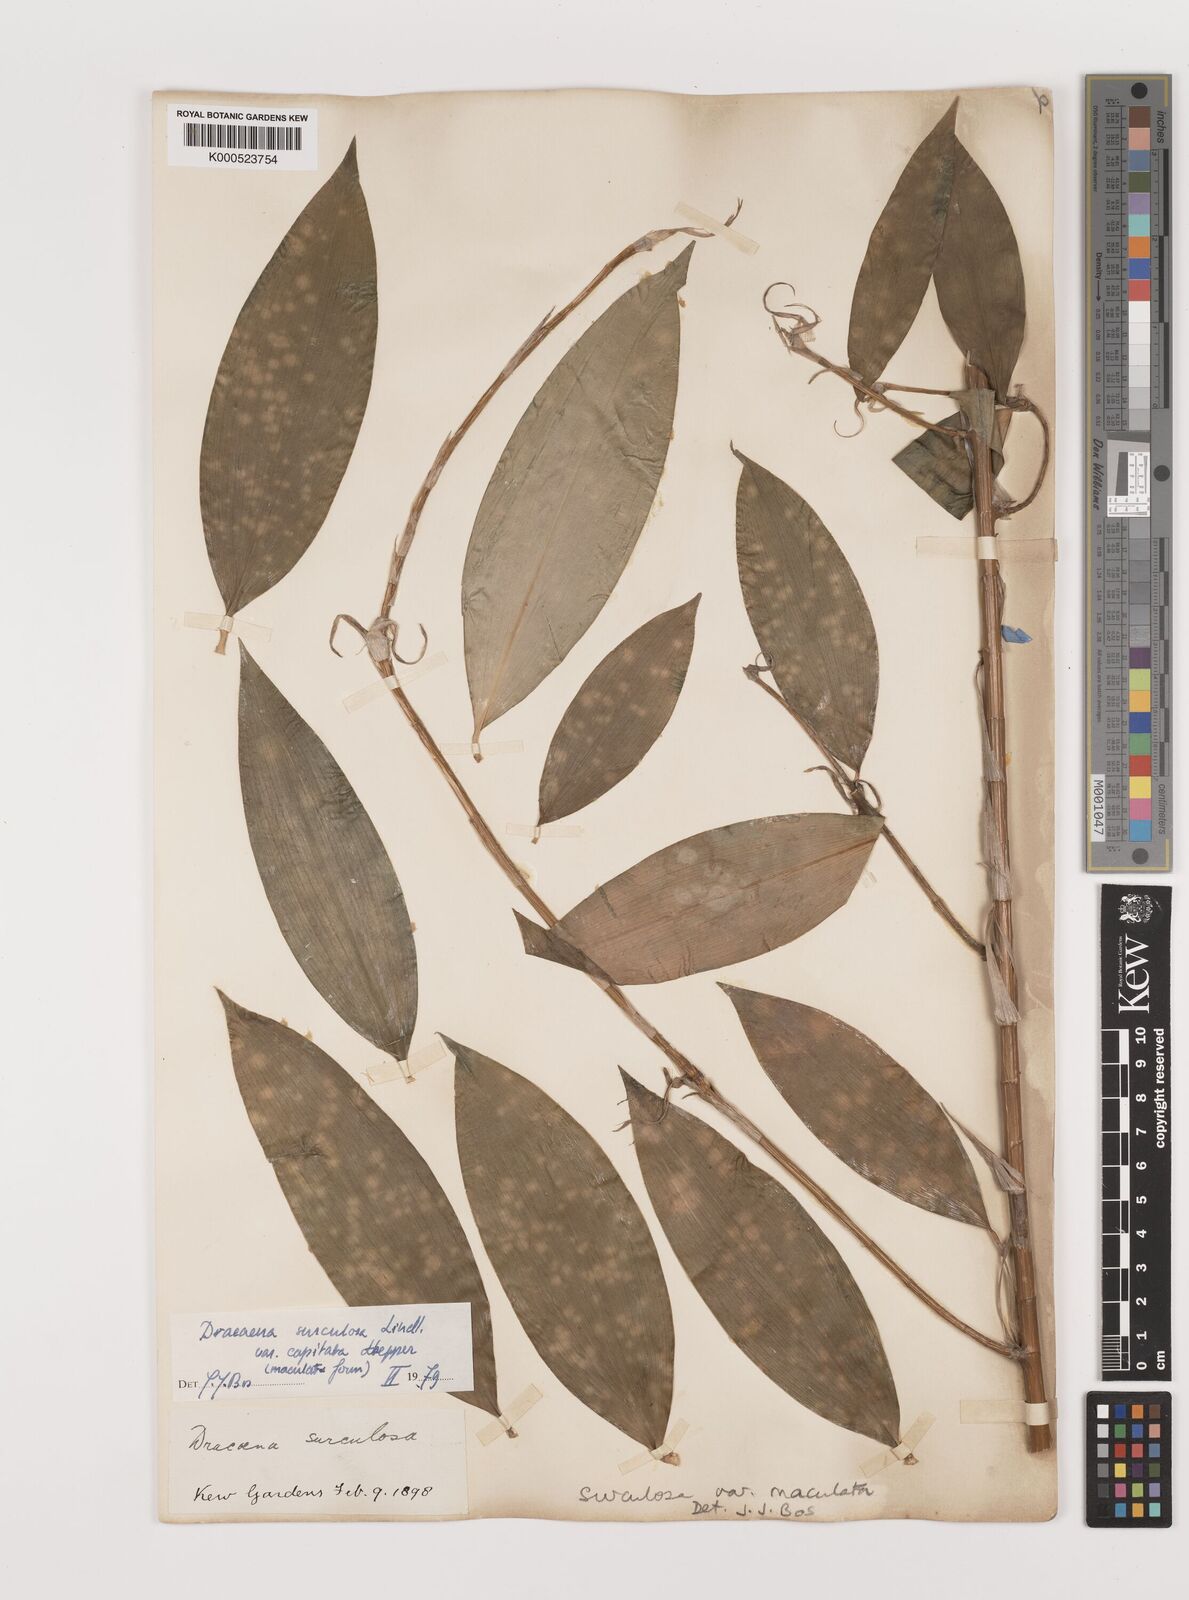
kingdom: Plantae
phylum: Tracheophyta
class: Liliopsida
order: Asparagales
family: Asparagaceae
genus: Dracaena
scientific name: Dracaena surculosa
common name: Spotted dracaena
